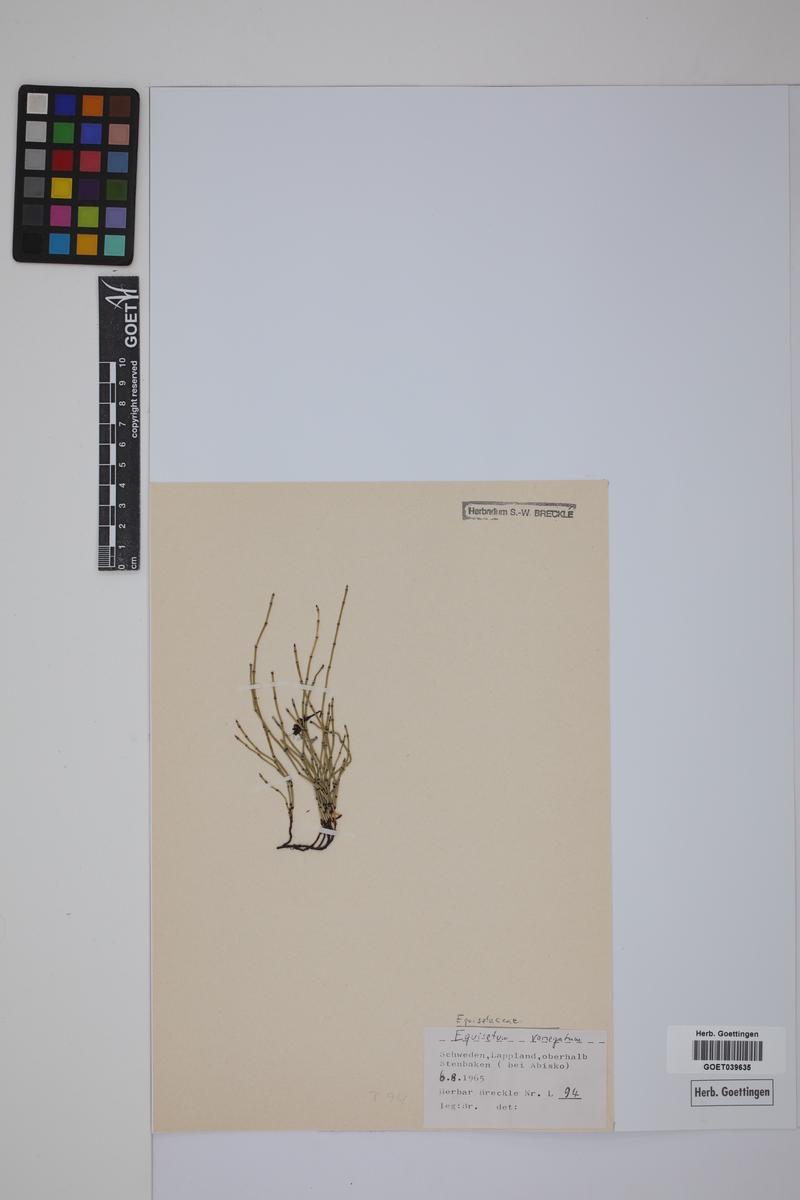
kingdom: Plantae
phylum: Tracheophyta
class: Polypodiopsida
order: Equisetales
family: Equisetaceae
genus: Equisetum
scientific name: Equisetum variegatum
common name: Variegated horsetail
